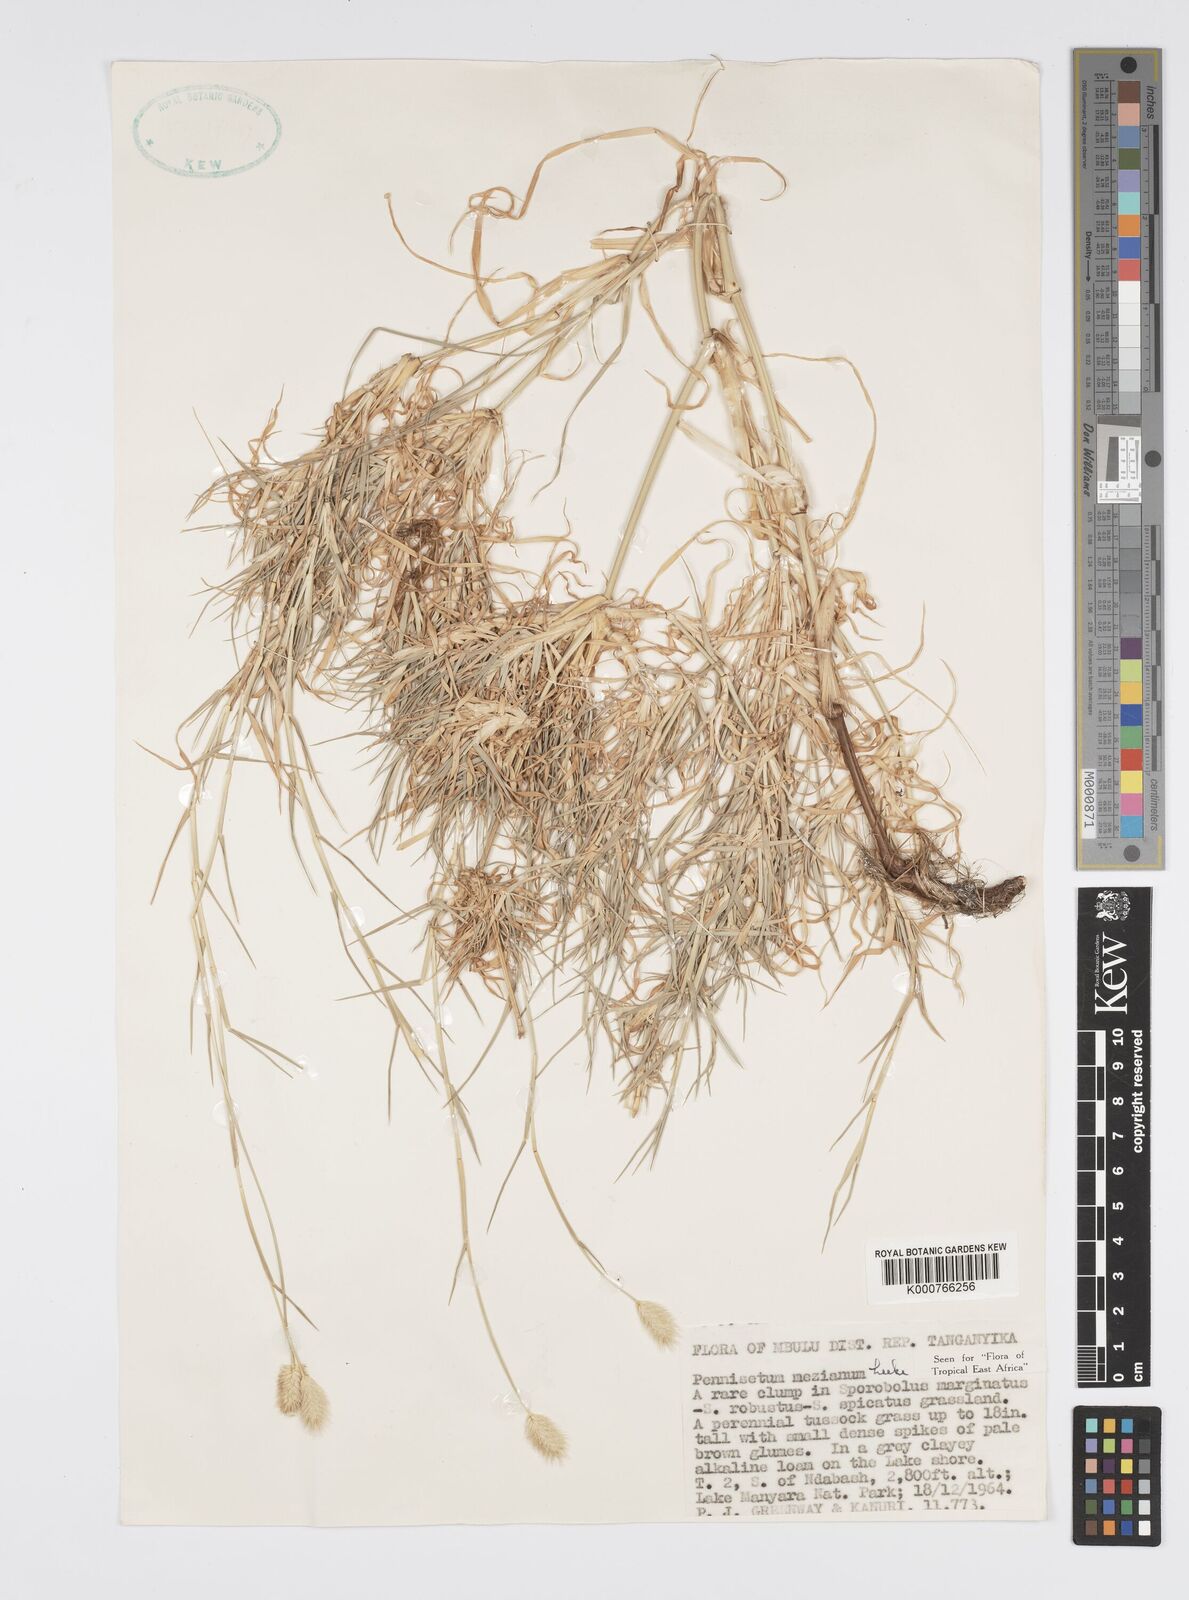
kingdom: Plantae
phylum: Tracheophyta
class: Liliopsida
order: Poales
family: Poaceae
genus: Cenchrus
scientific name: Cenchrus mezianus
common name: Bamboo grass
